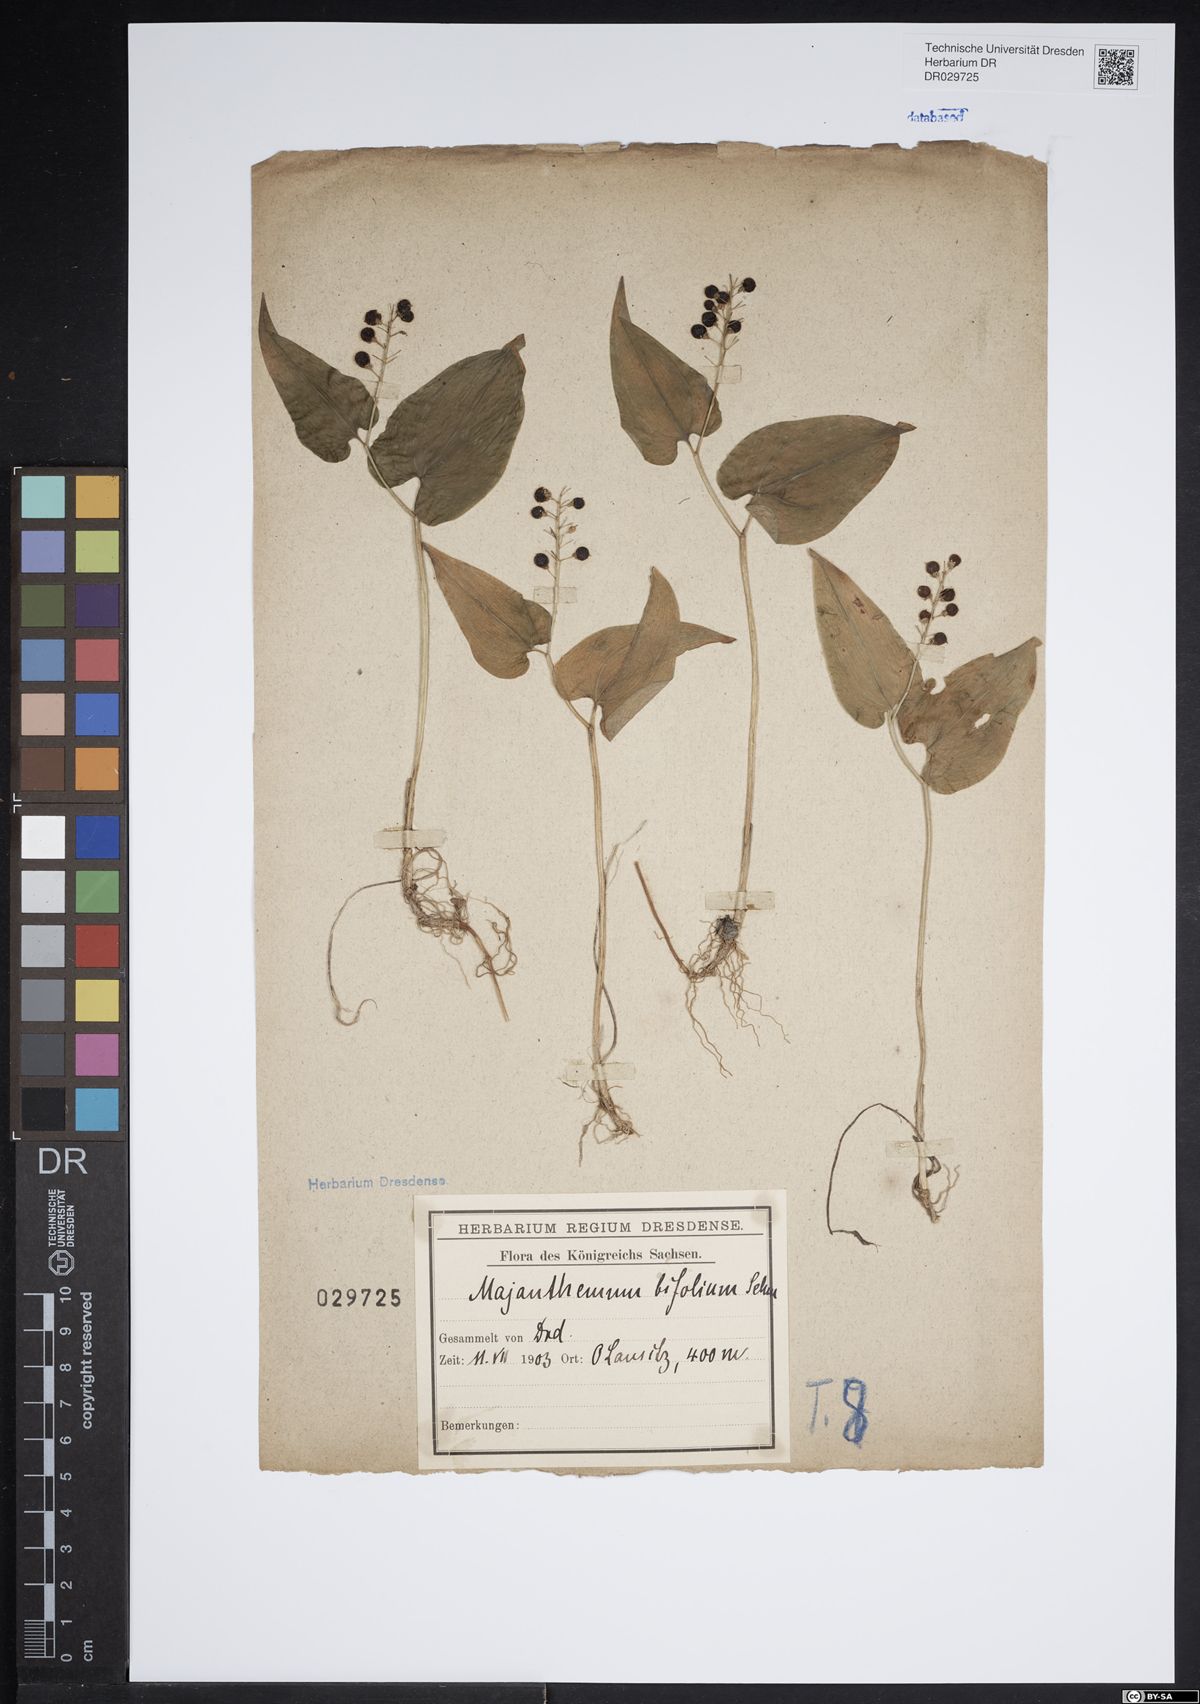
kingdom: Plantae
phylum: Tracheophyta
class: Liliopsida
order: Asparagales
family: Asparagaceae
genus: Maianthemum
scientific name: Maianthemum bifolium
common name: May lily
